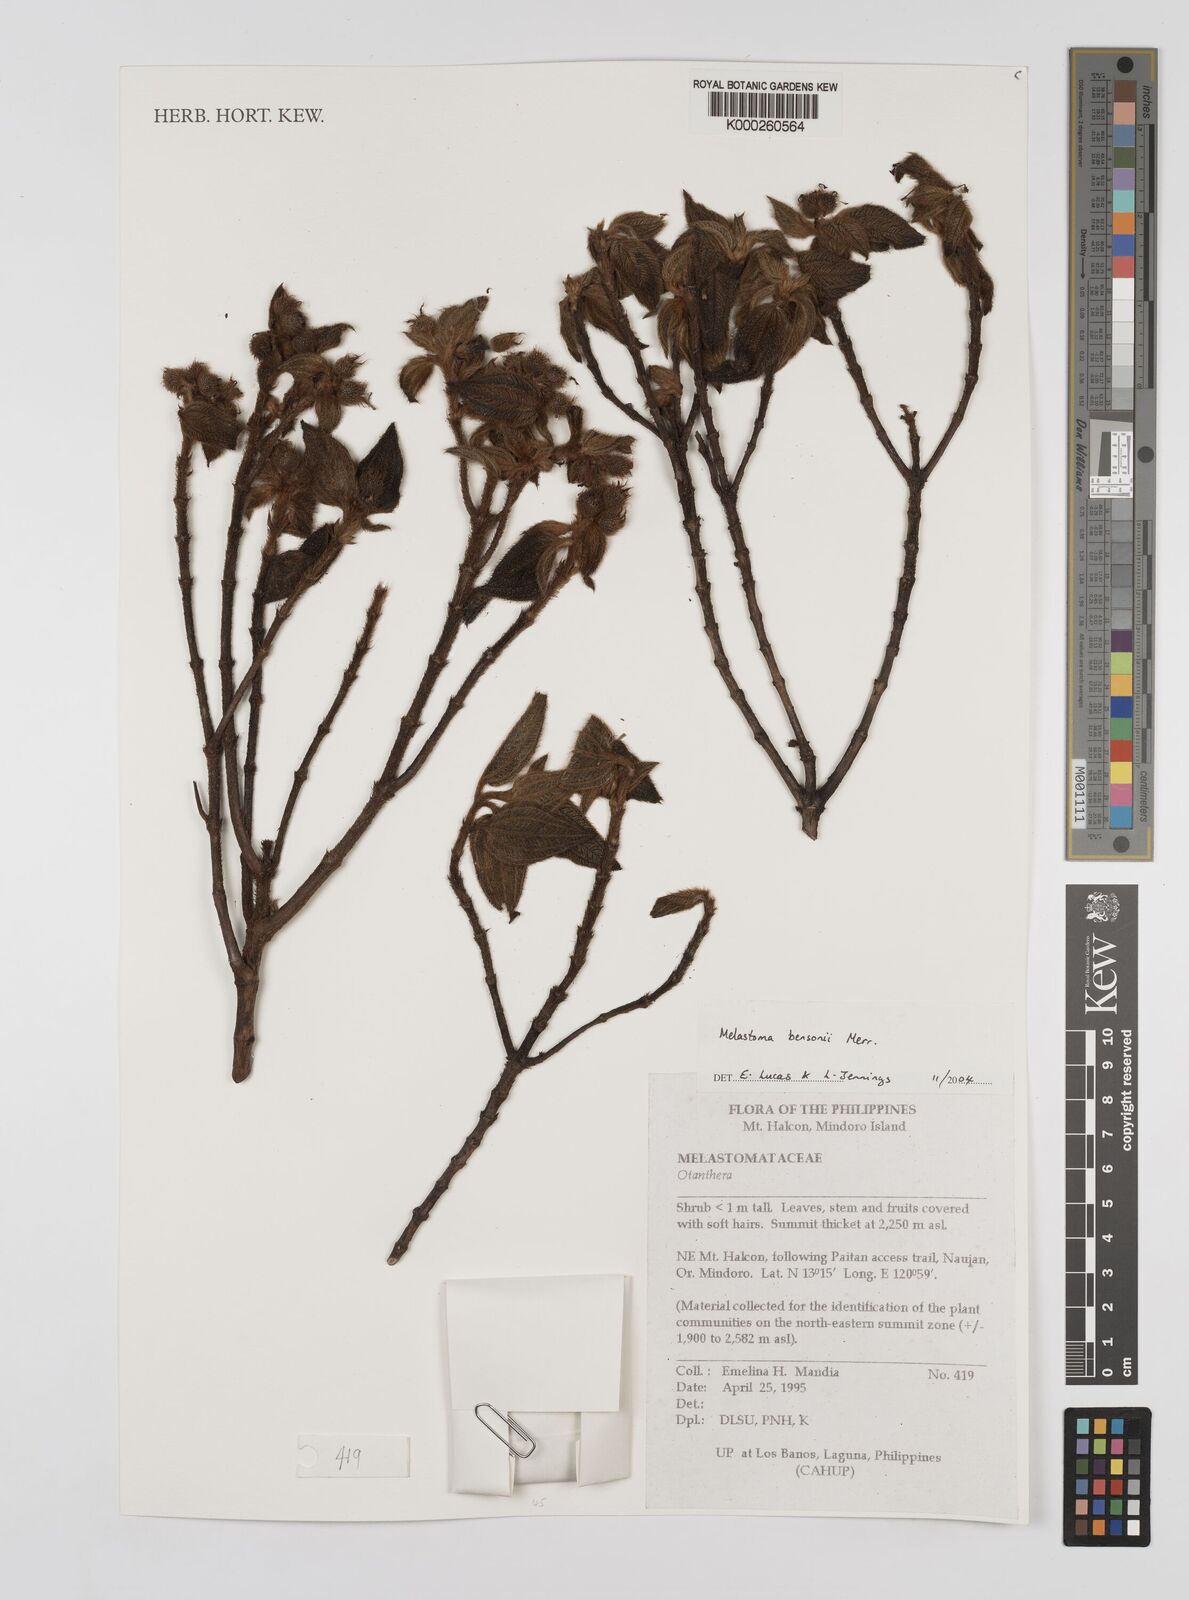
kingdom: Plantae
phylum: Tracheophyta
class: Magnoliopsida
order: Myrtales
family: Melastomataceae
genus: Melastoma
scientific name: Melastoma bensonii
